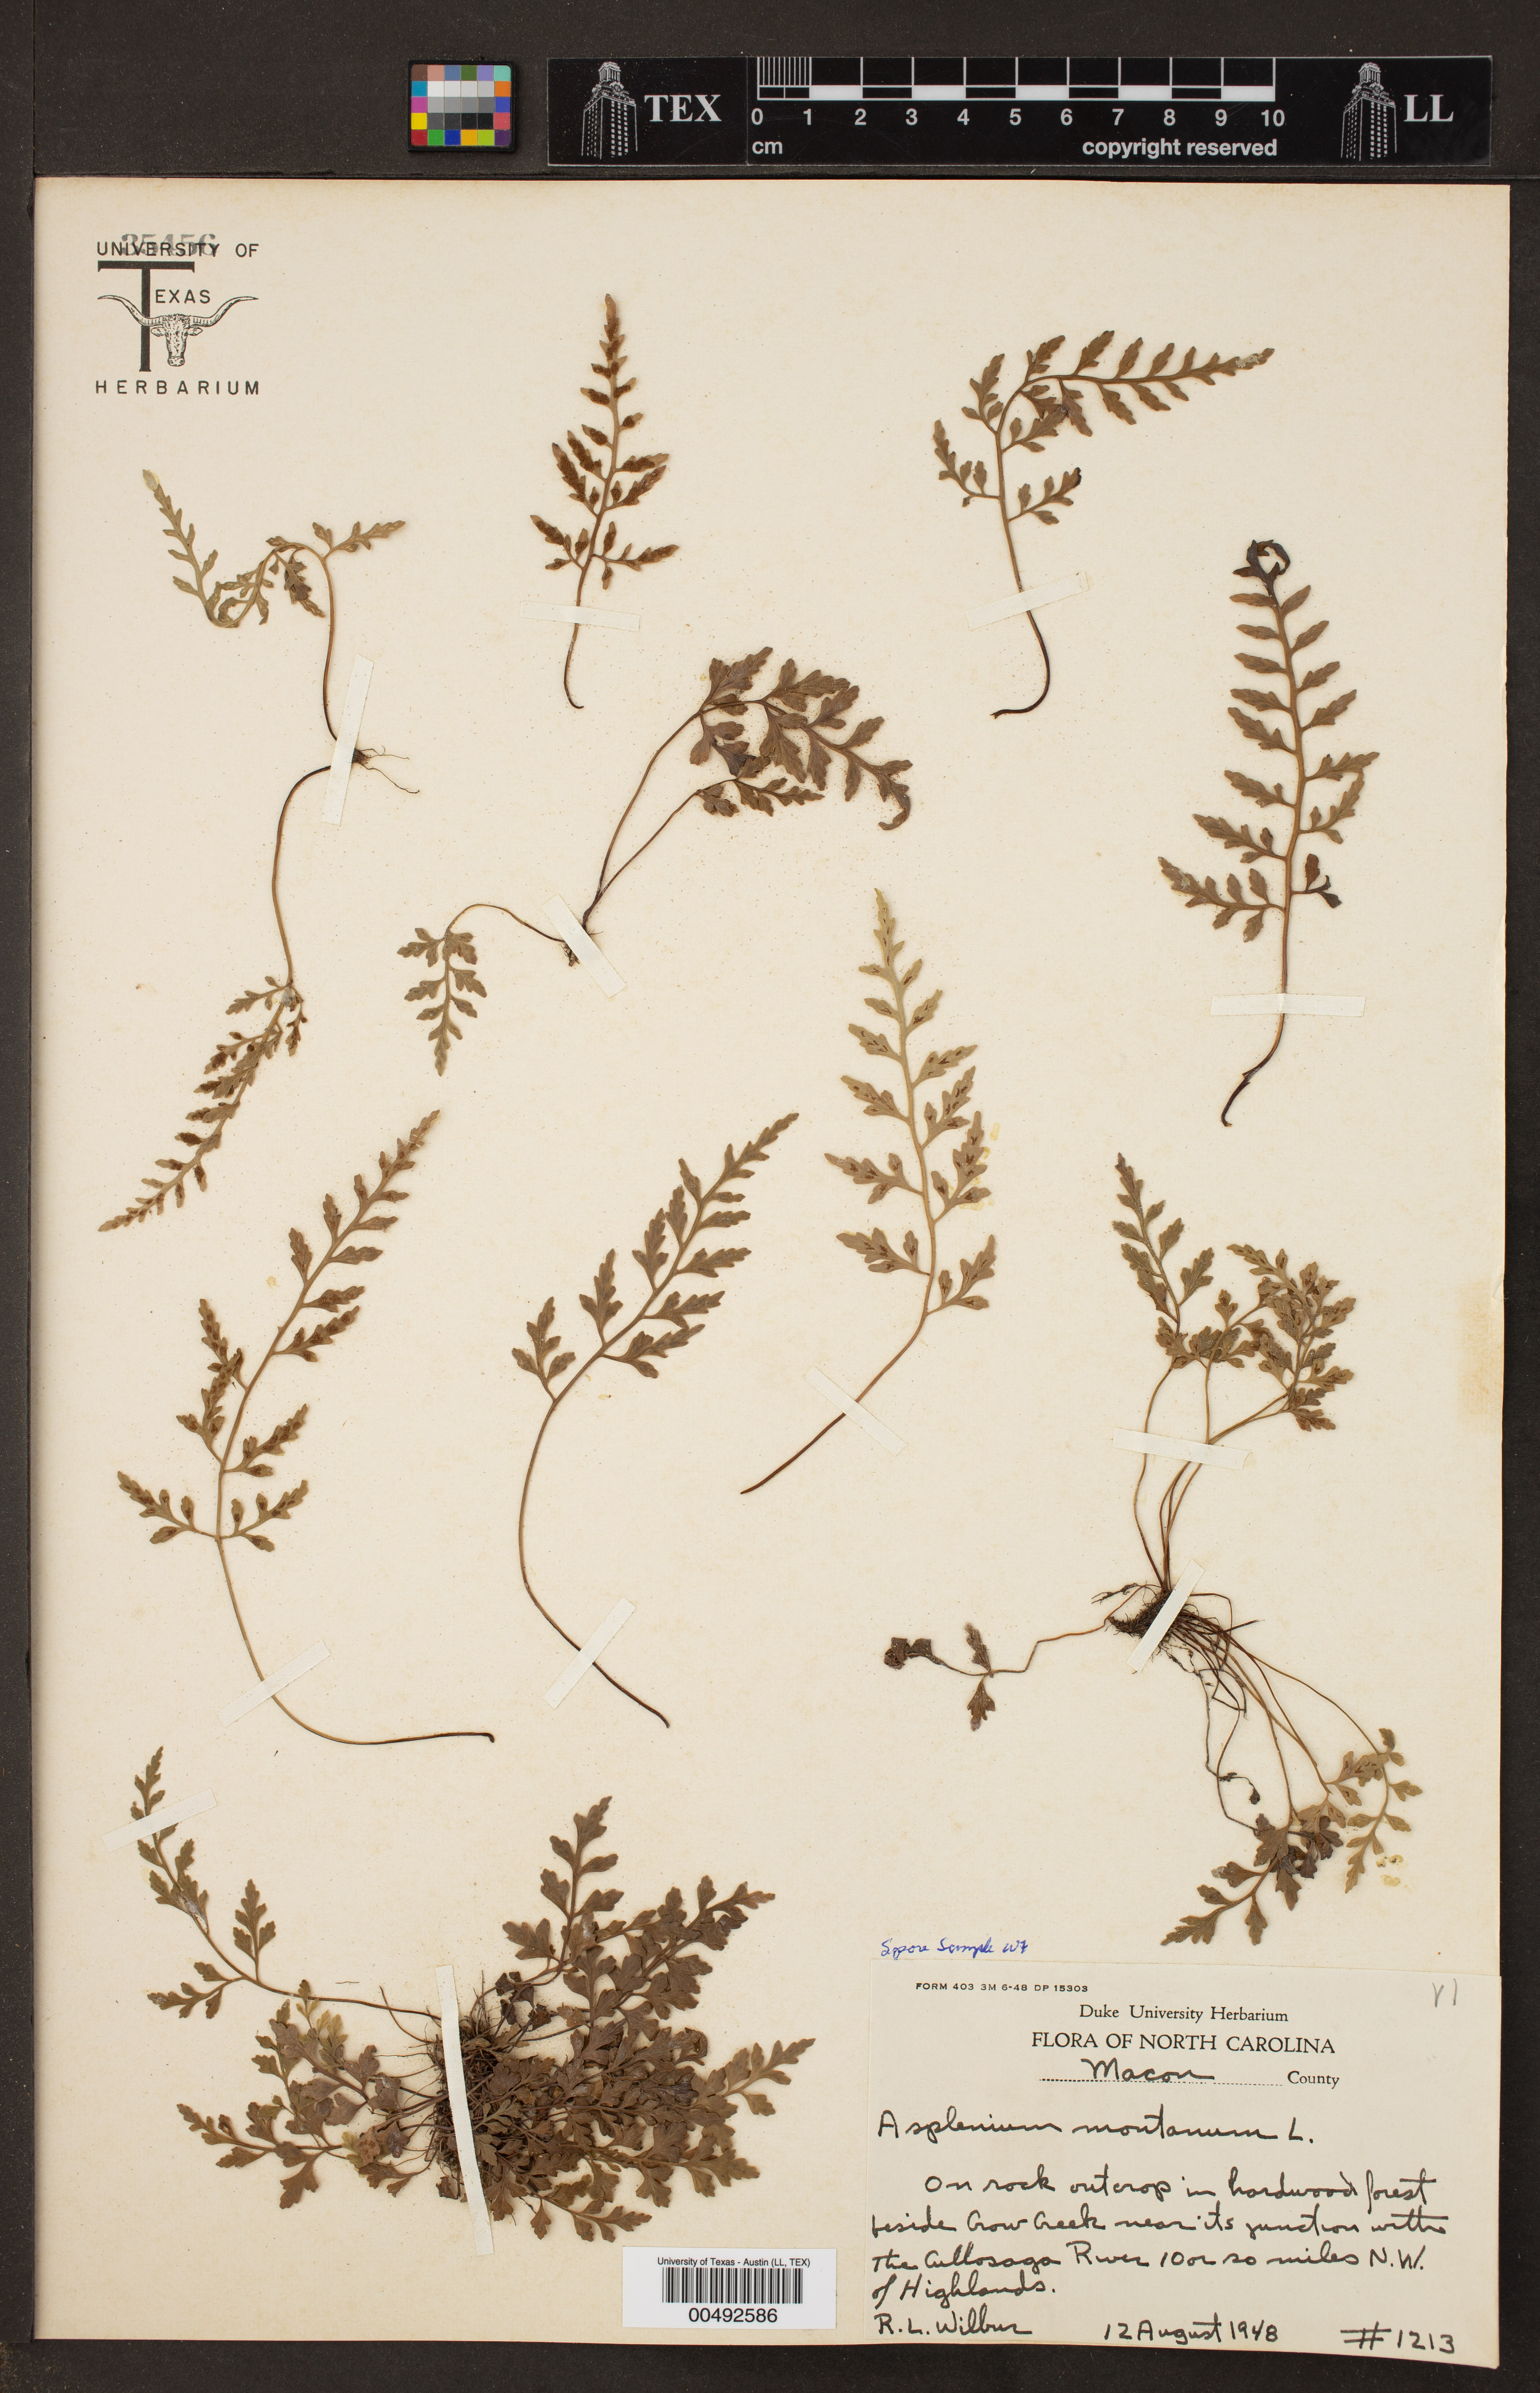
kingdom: Plantae
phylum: Tracheophyta
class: Polypodiopsida
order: Polypodiales
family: Aspleniaceae
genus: Asplenium
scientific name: Asplenium montanum
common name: Mountain spleenwort
